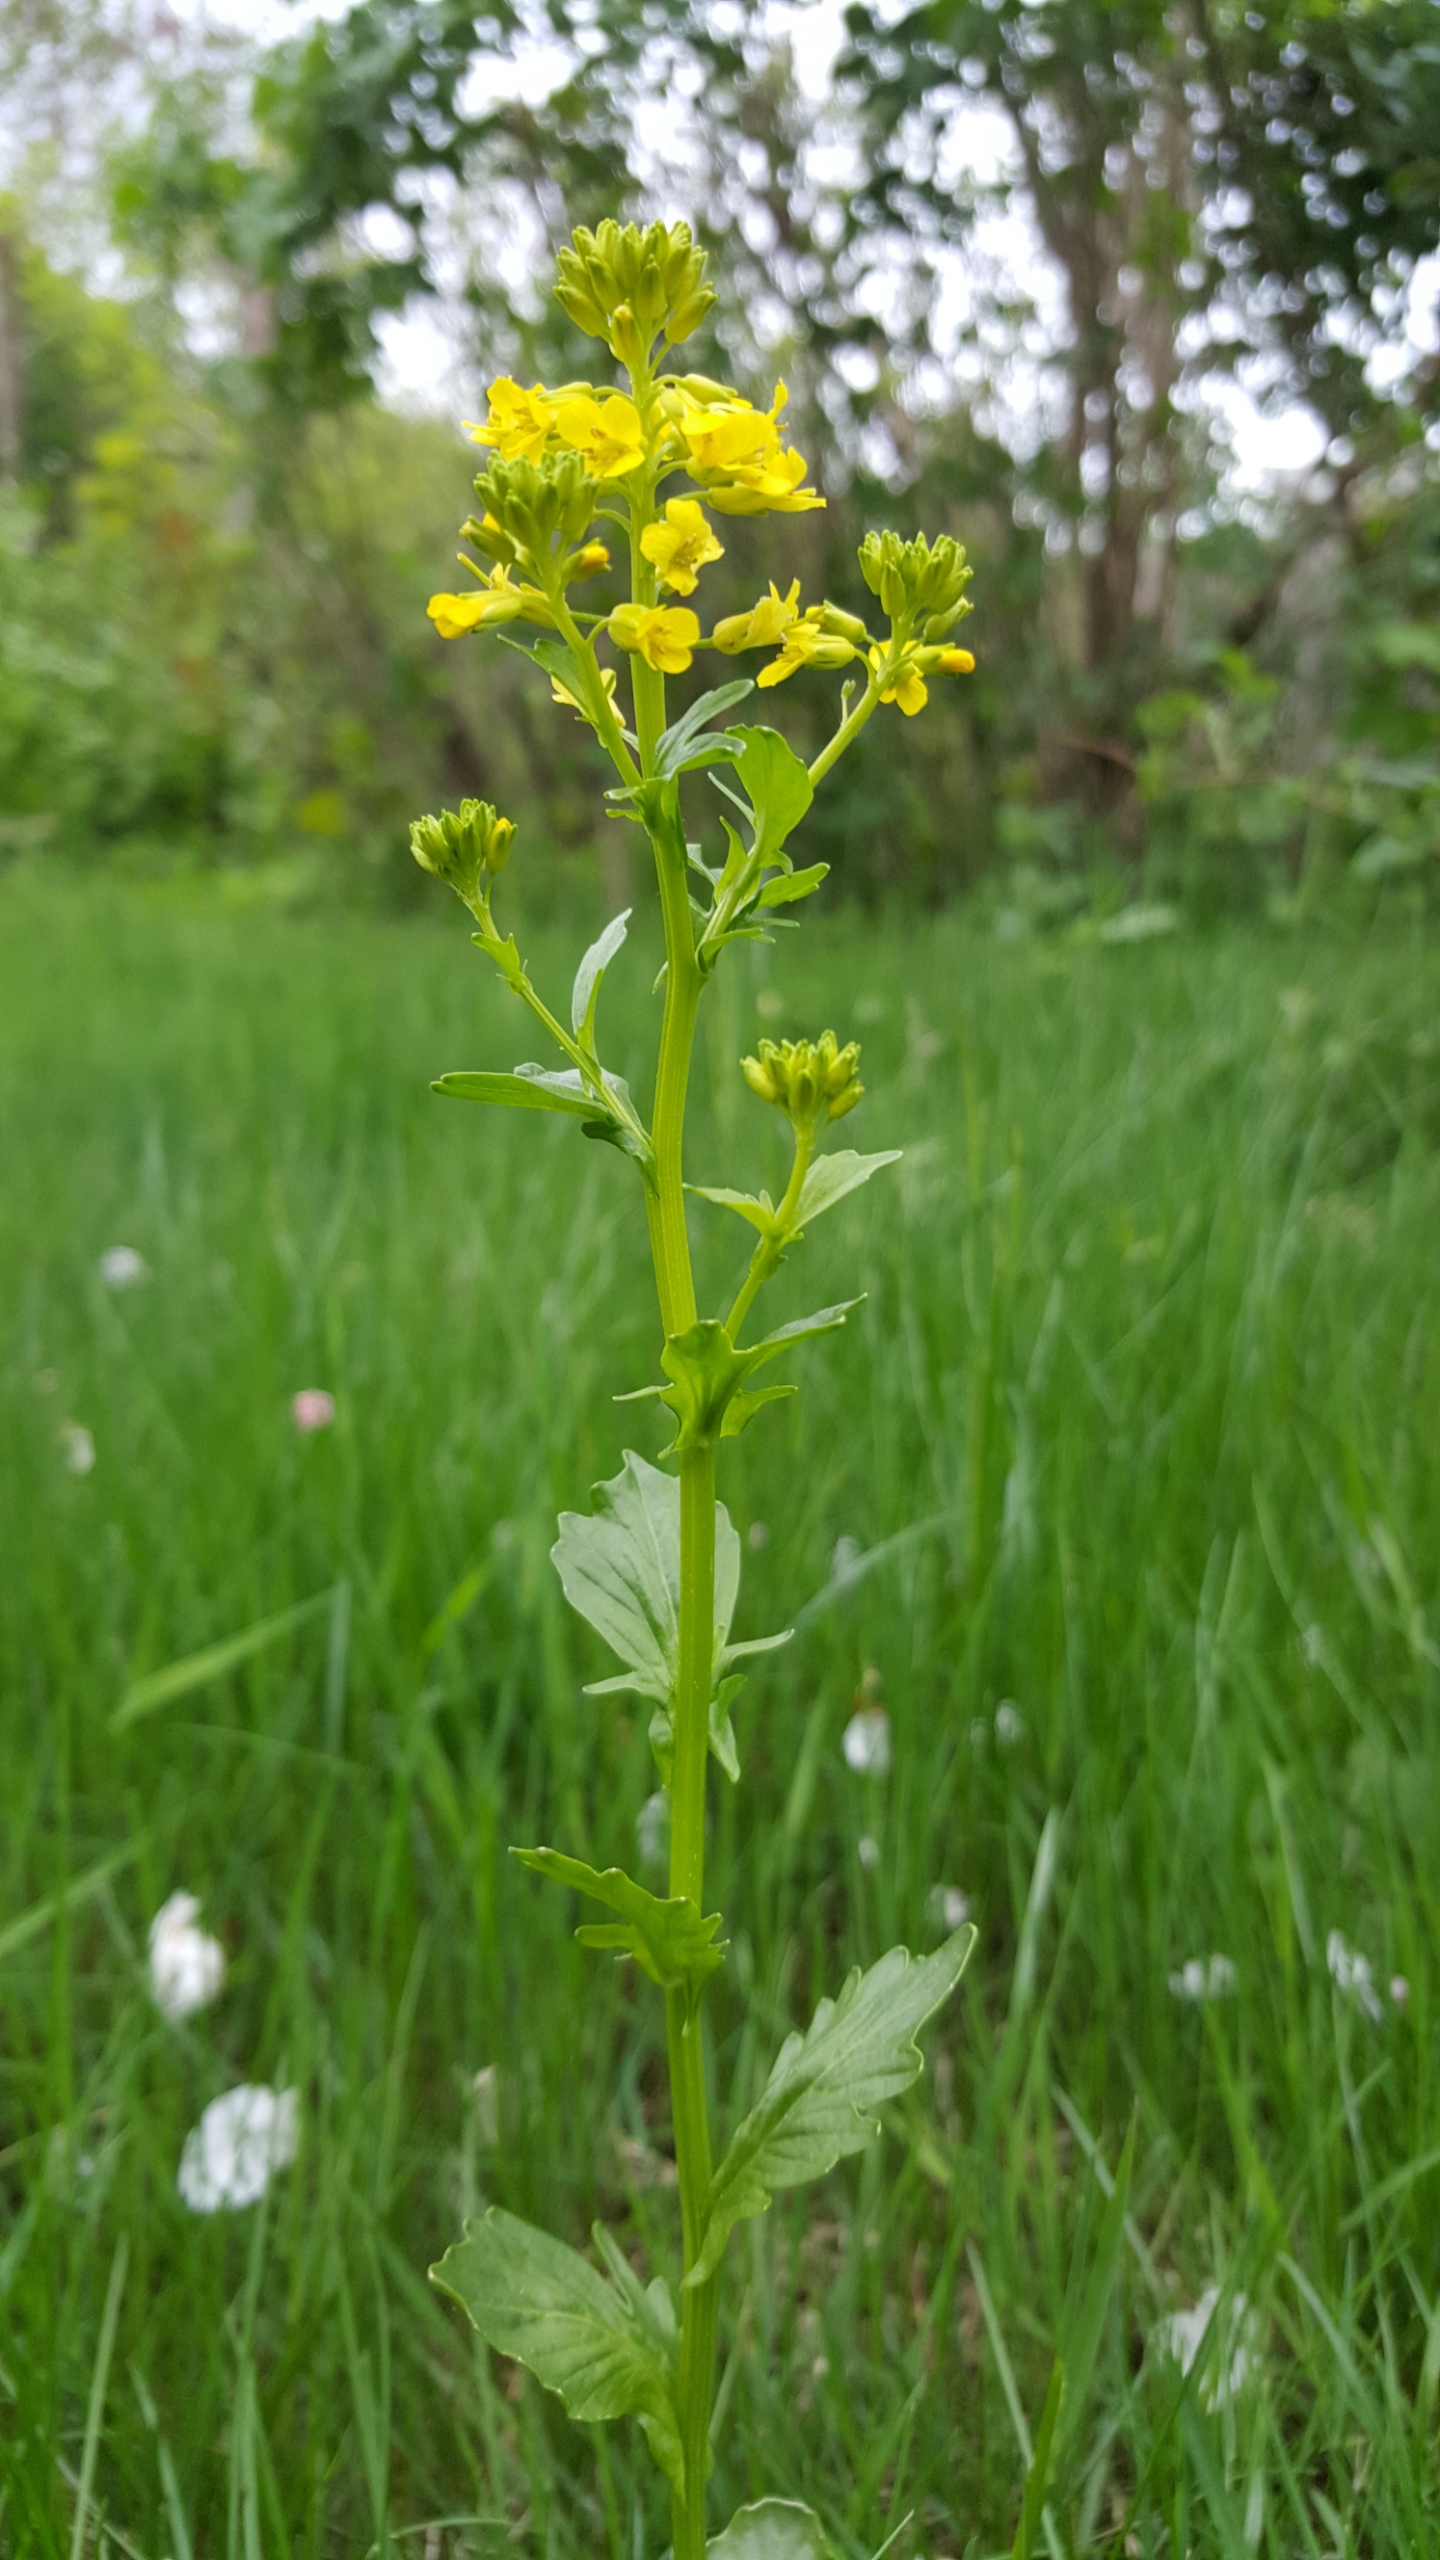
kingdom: Plantae
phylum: Tracheophyta
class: Magnoliopsida
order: Brassicales
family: Brassicaceae
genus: Barbarea
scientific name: Barbarea vulgaris
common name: Almindelig vinterkarse
